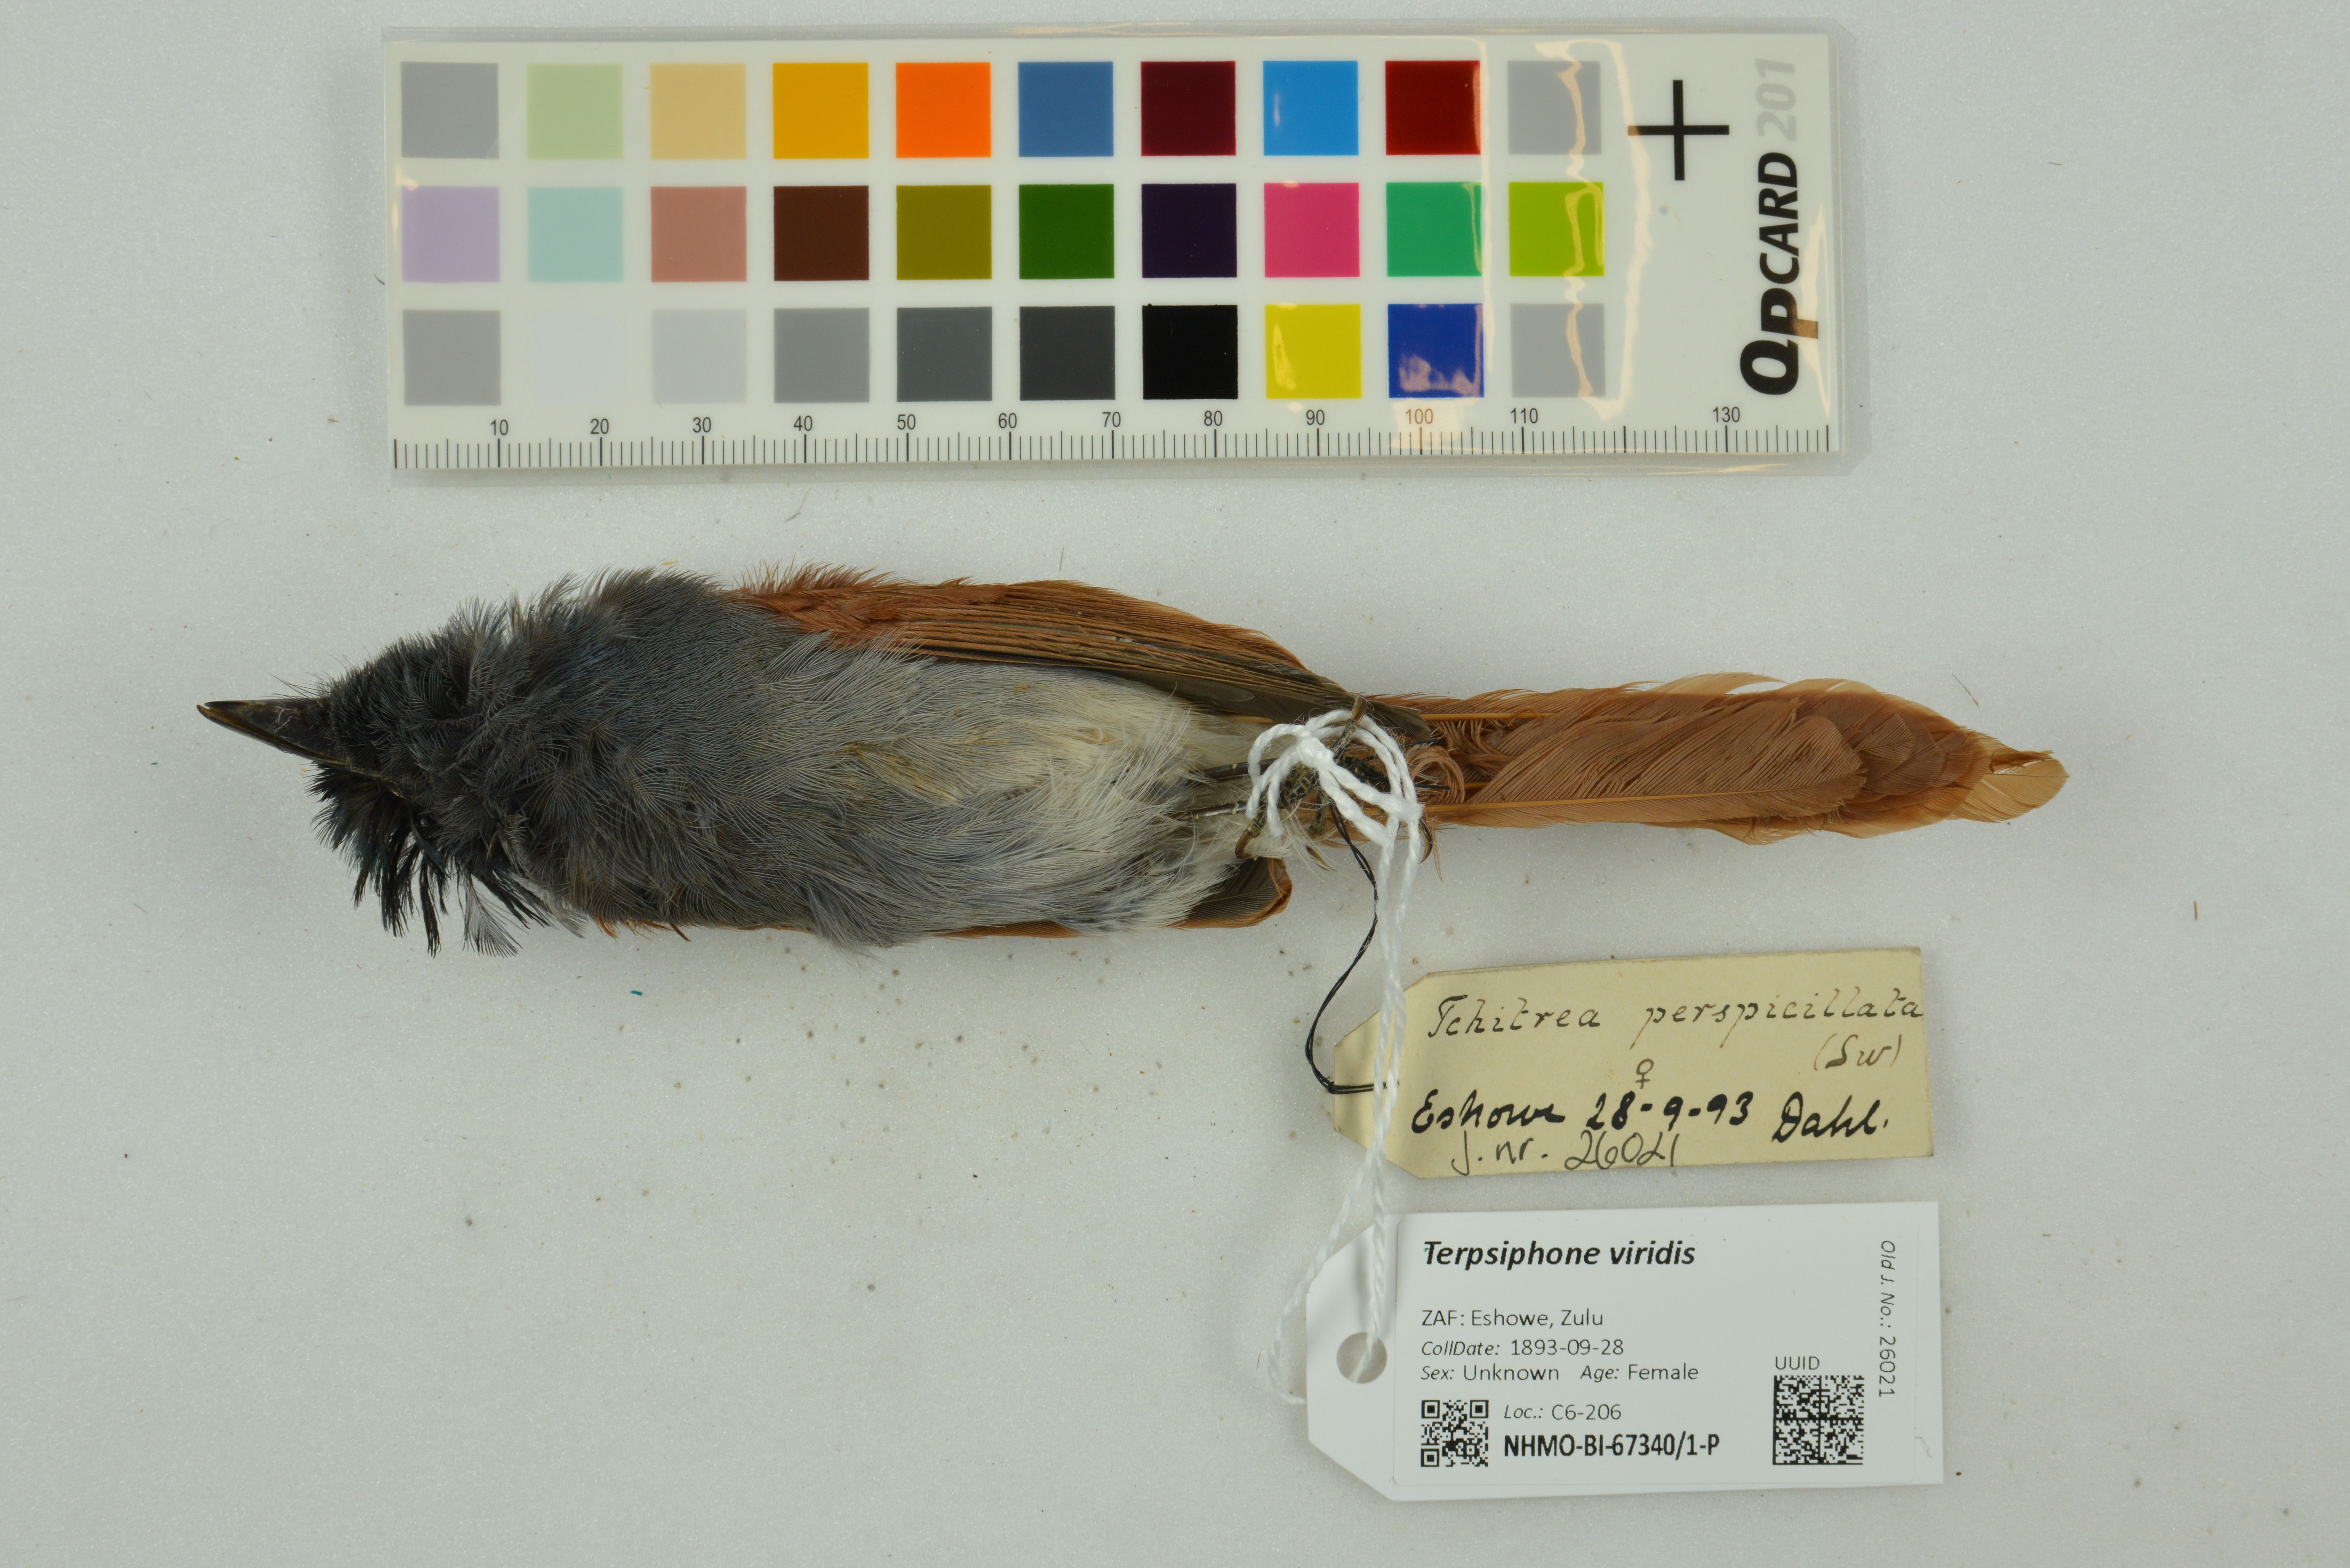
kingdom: Animalia
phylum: Chordata
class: Aves
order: Passeriformes
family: Monarchidae
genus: Terpsiphone
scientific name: Terpsiphone viridis
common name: African paradise flycatcher
